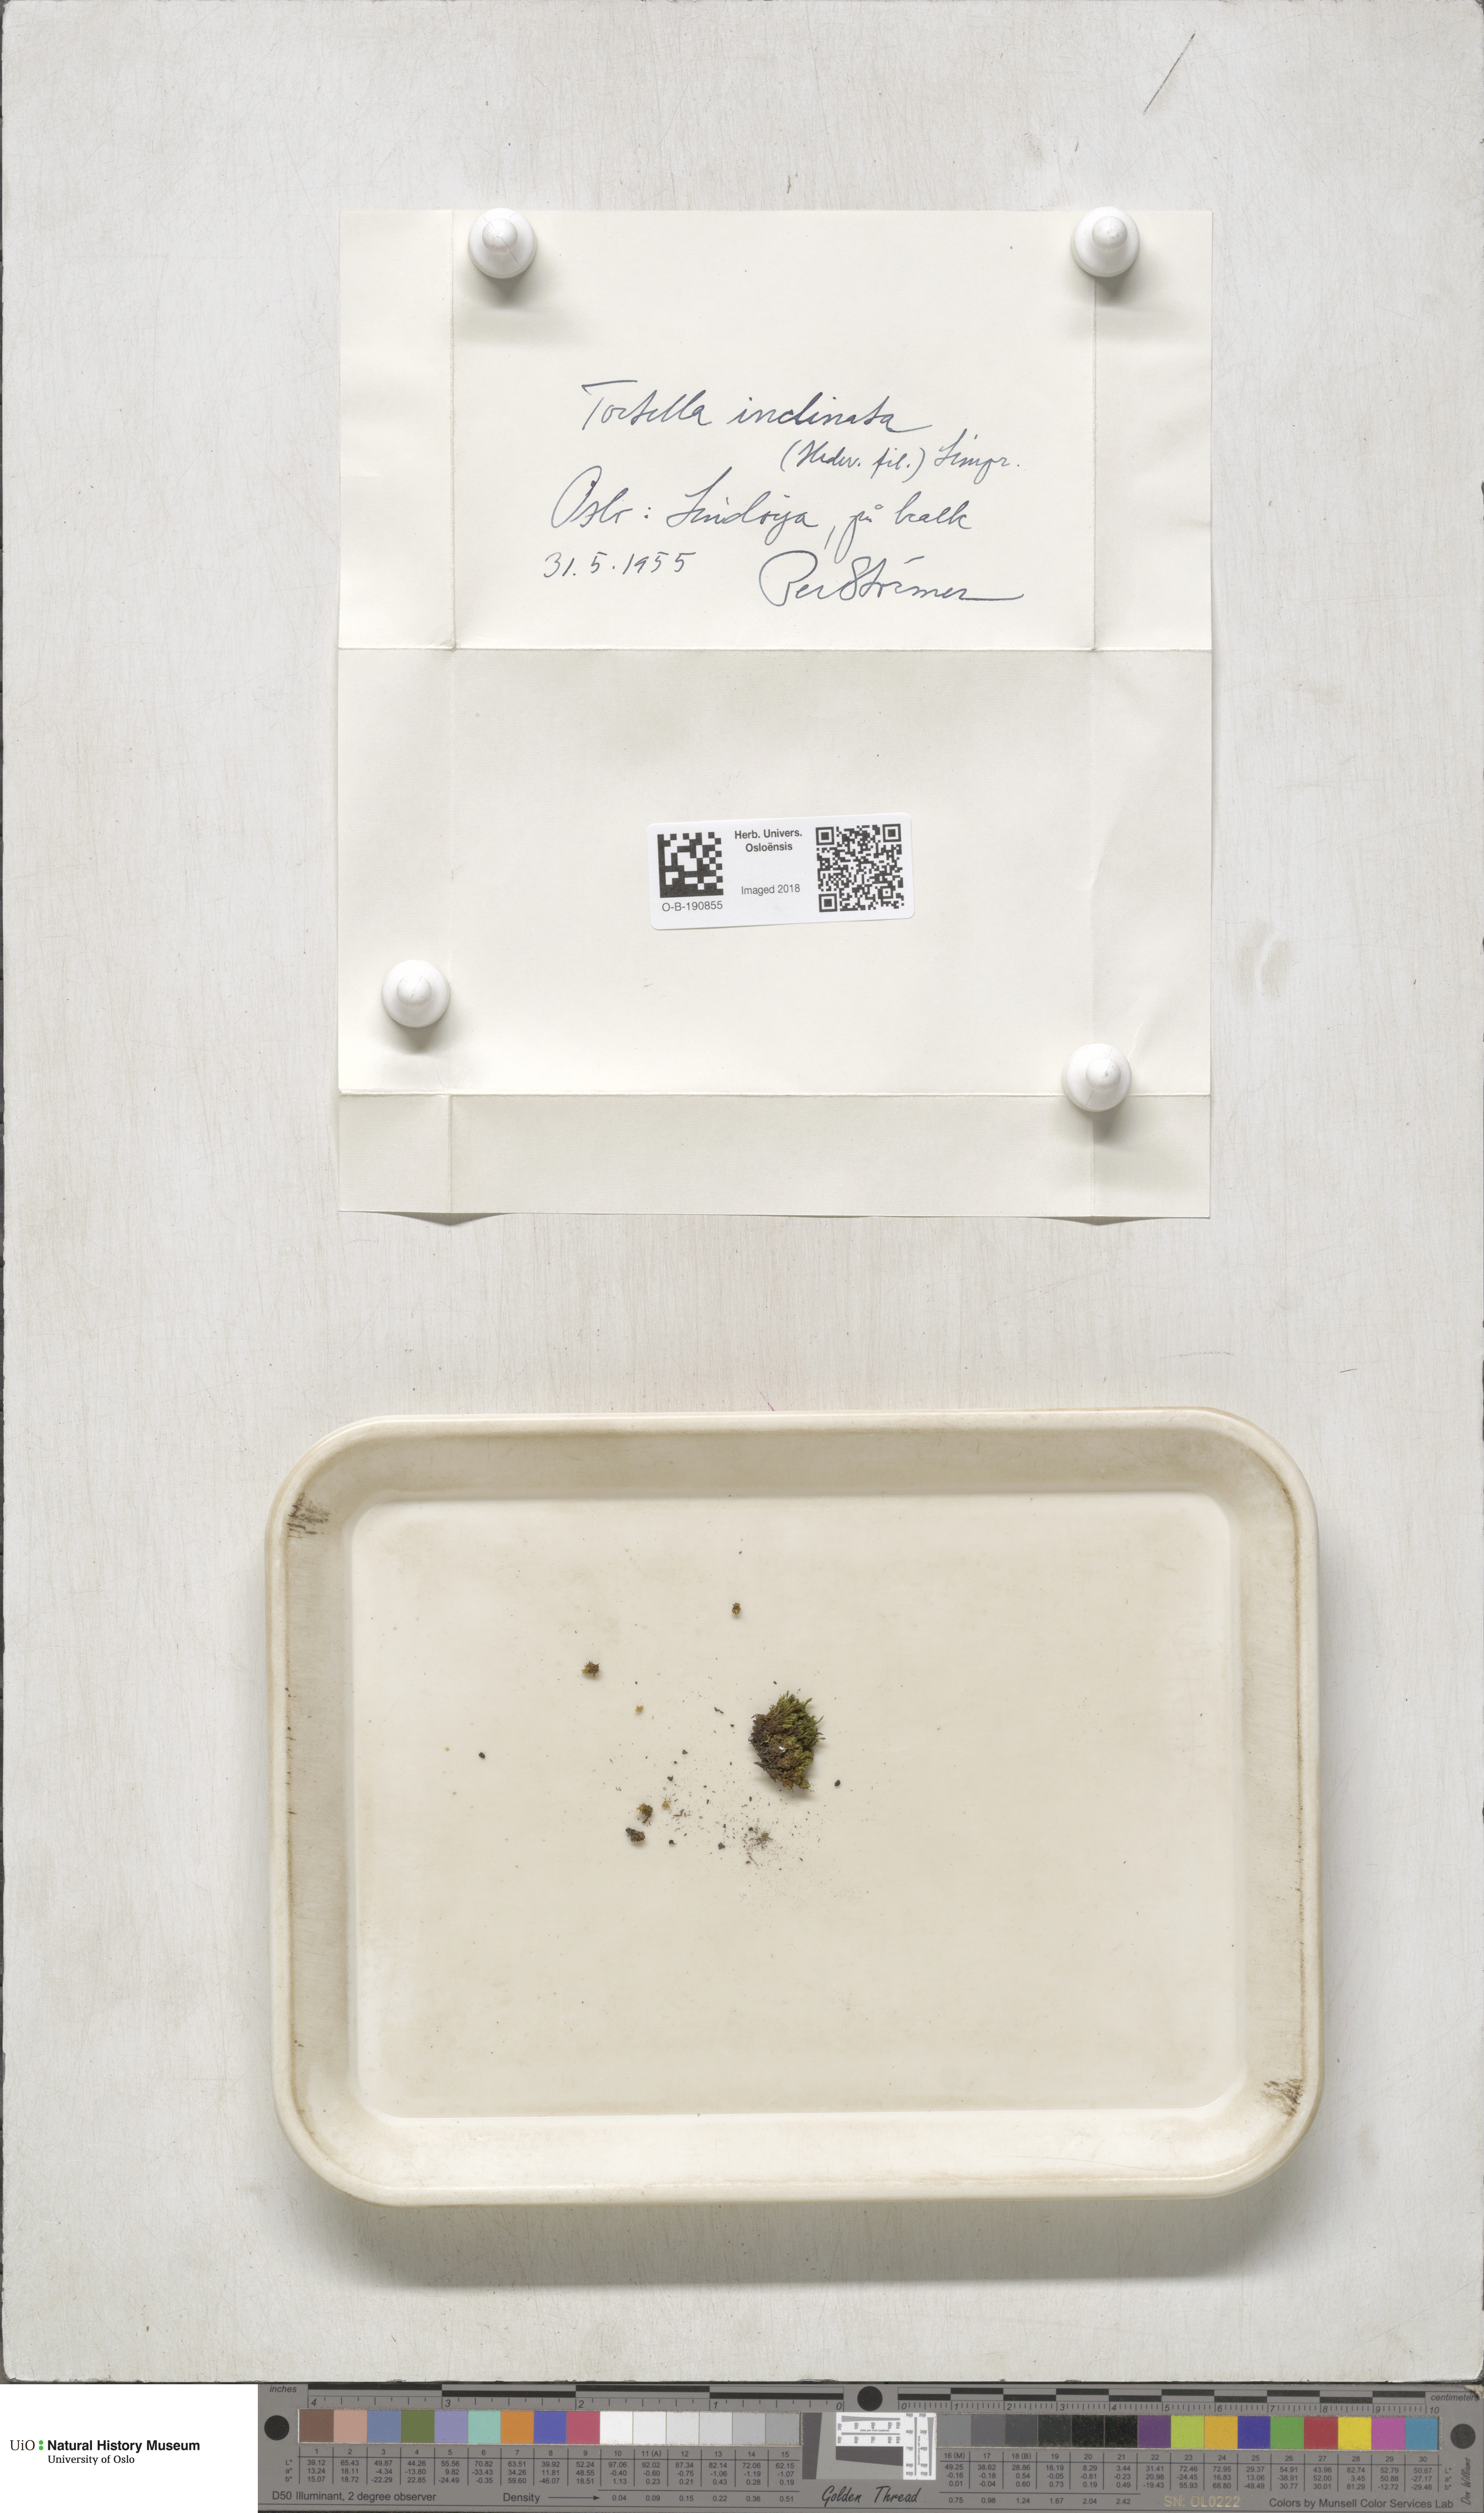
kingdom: Plantae
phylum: Bryophyta
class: Bryopsida
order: Pottiales
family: Pottiaceae
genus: Tortella
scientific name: Tortella inclinata
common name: Inclined twisted moss
